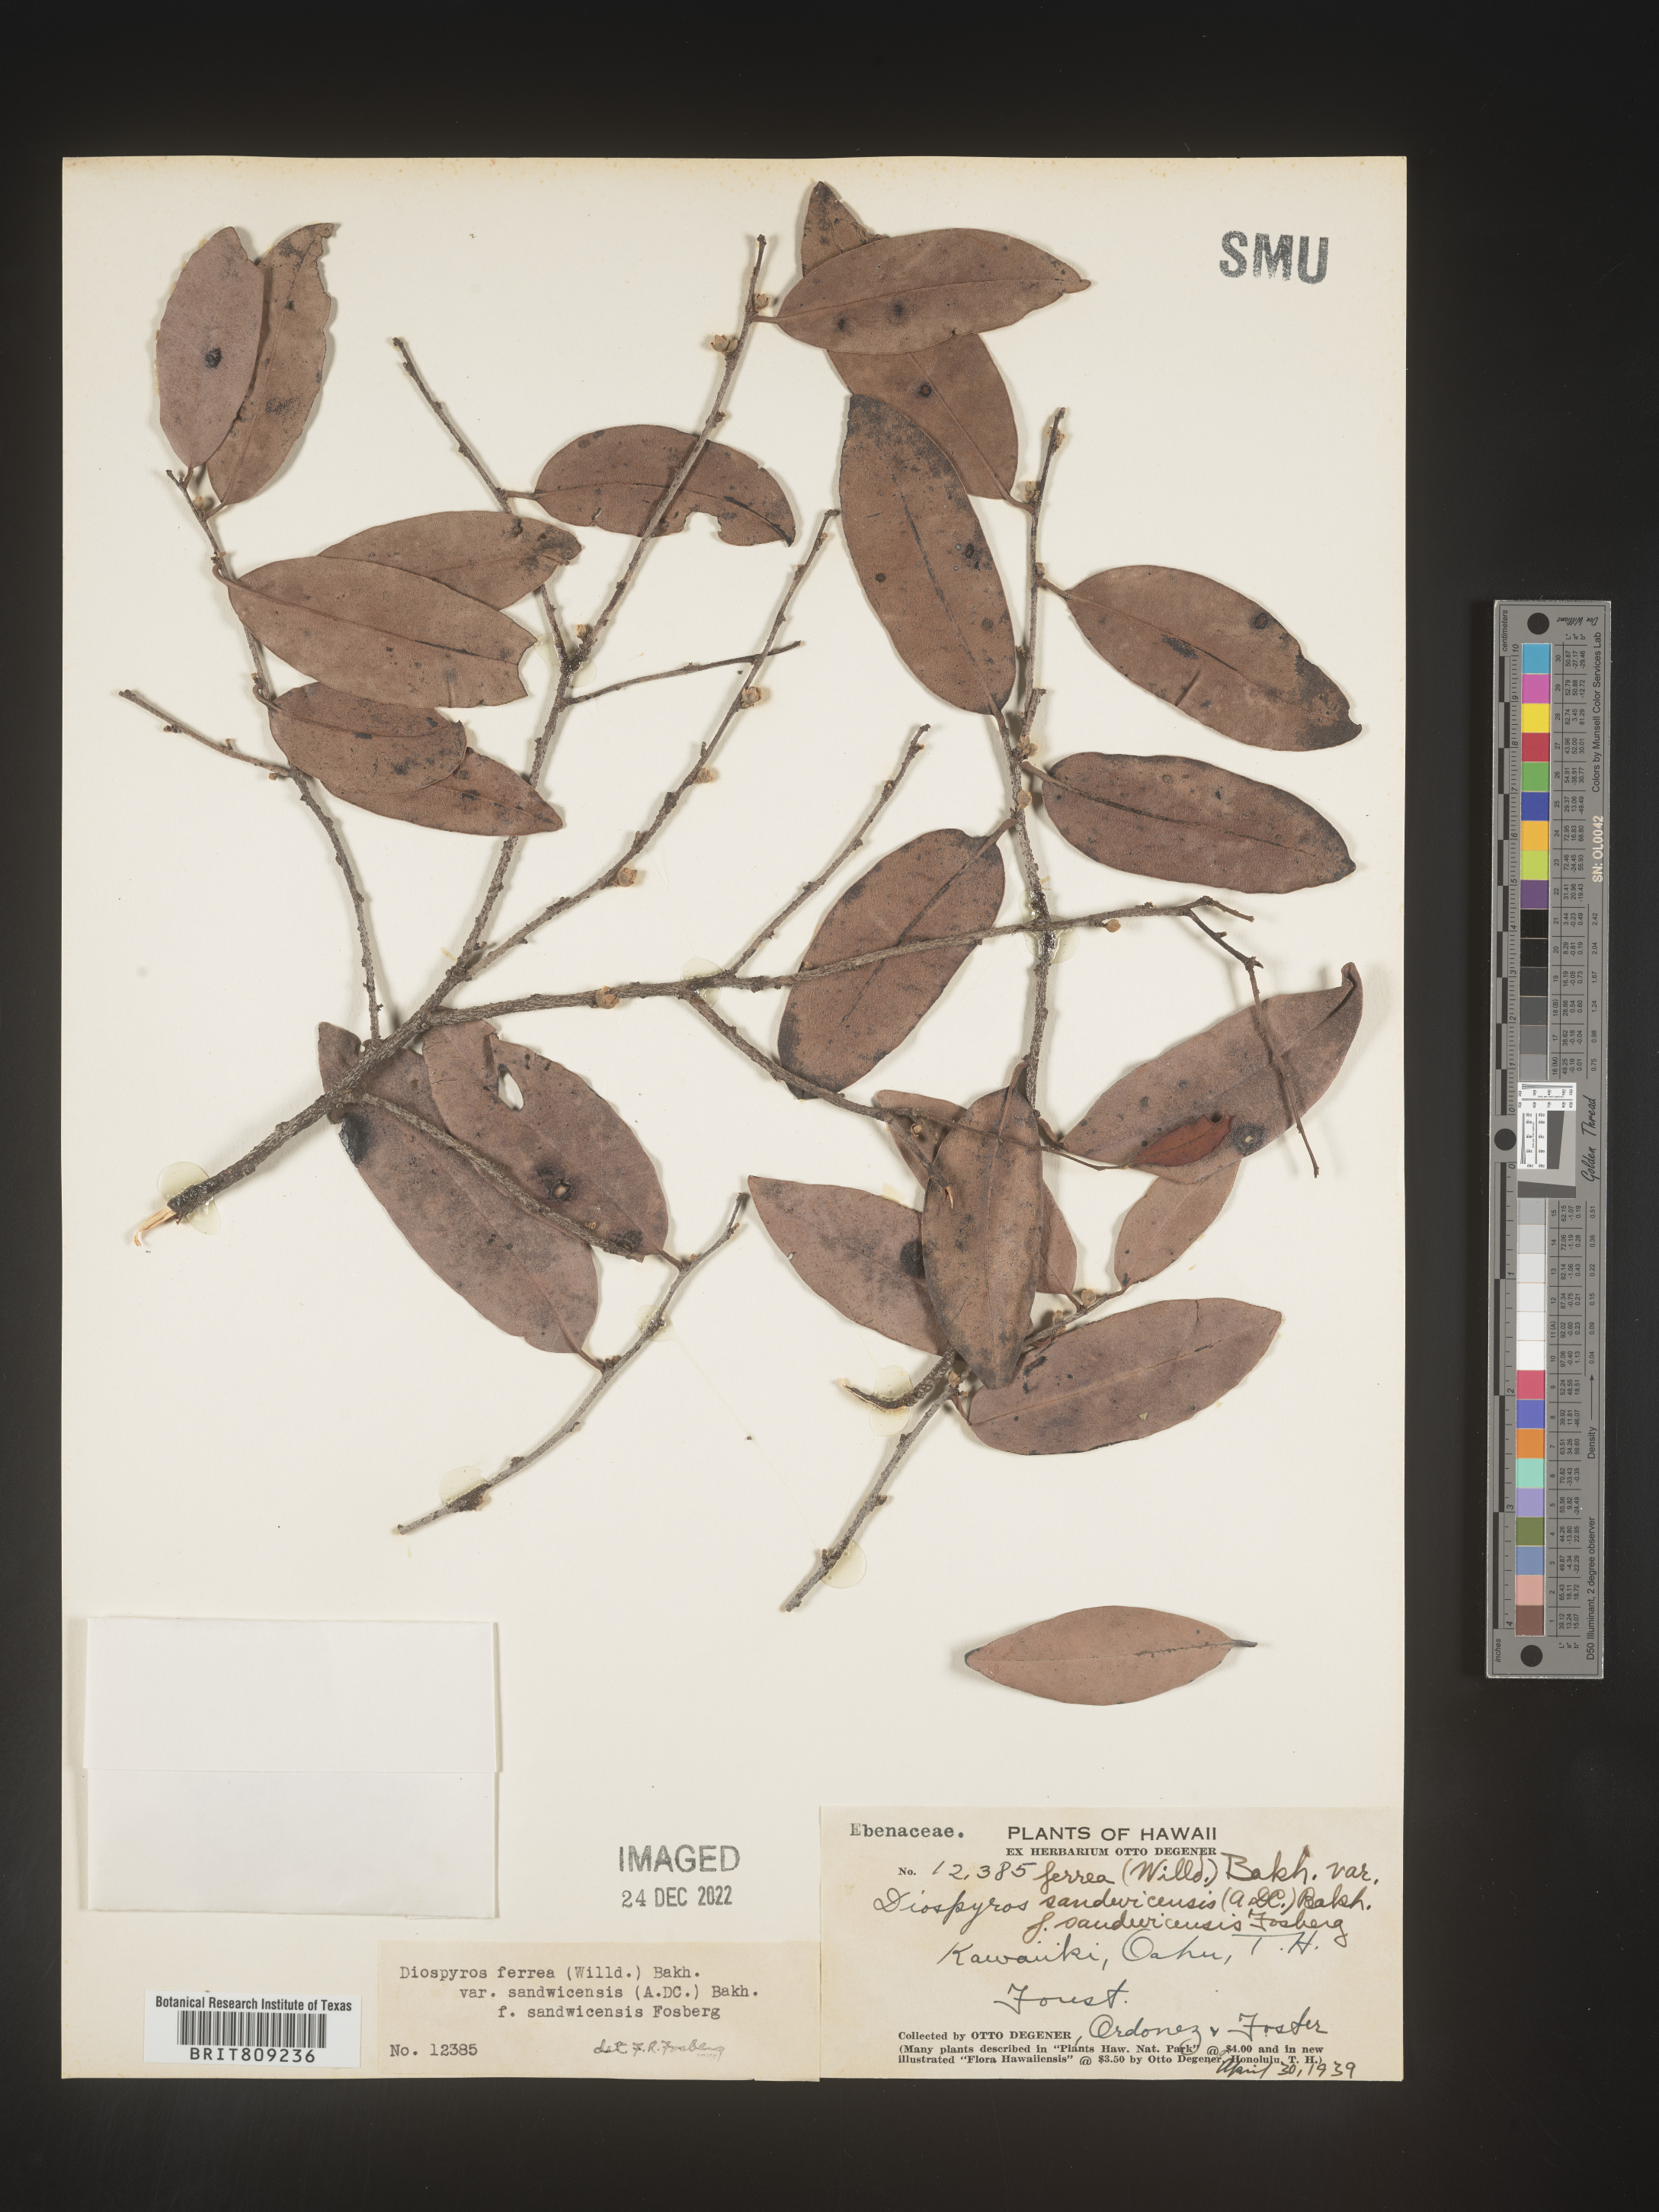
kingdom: Plantae
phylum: Tracheophyta
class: Magnoliopsida
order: Ericales
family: Ebenaceae
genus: Diospyros
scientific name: Diospyros
